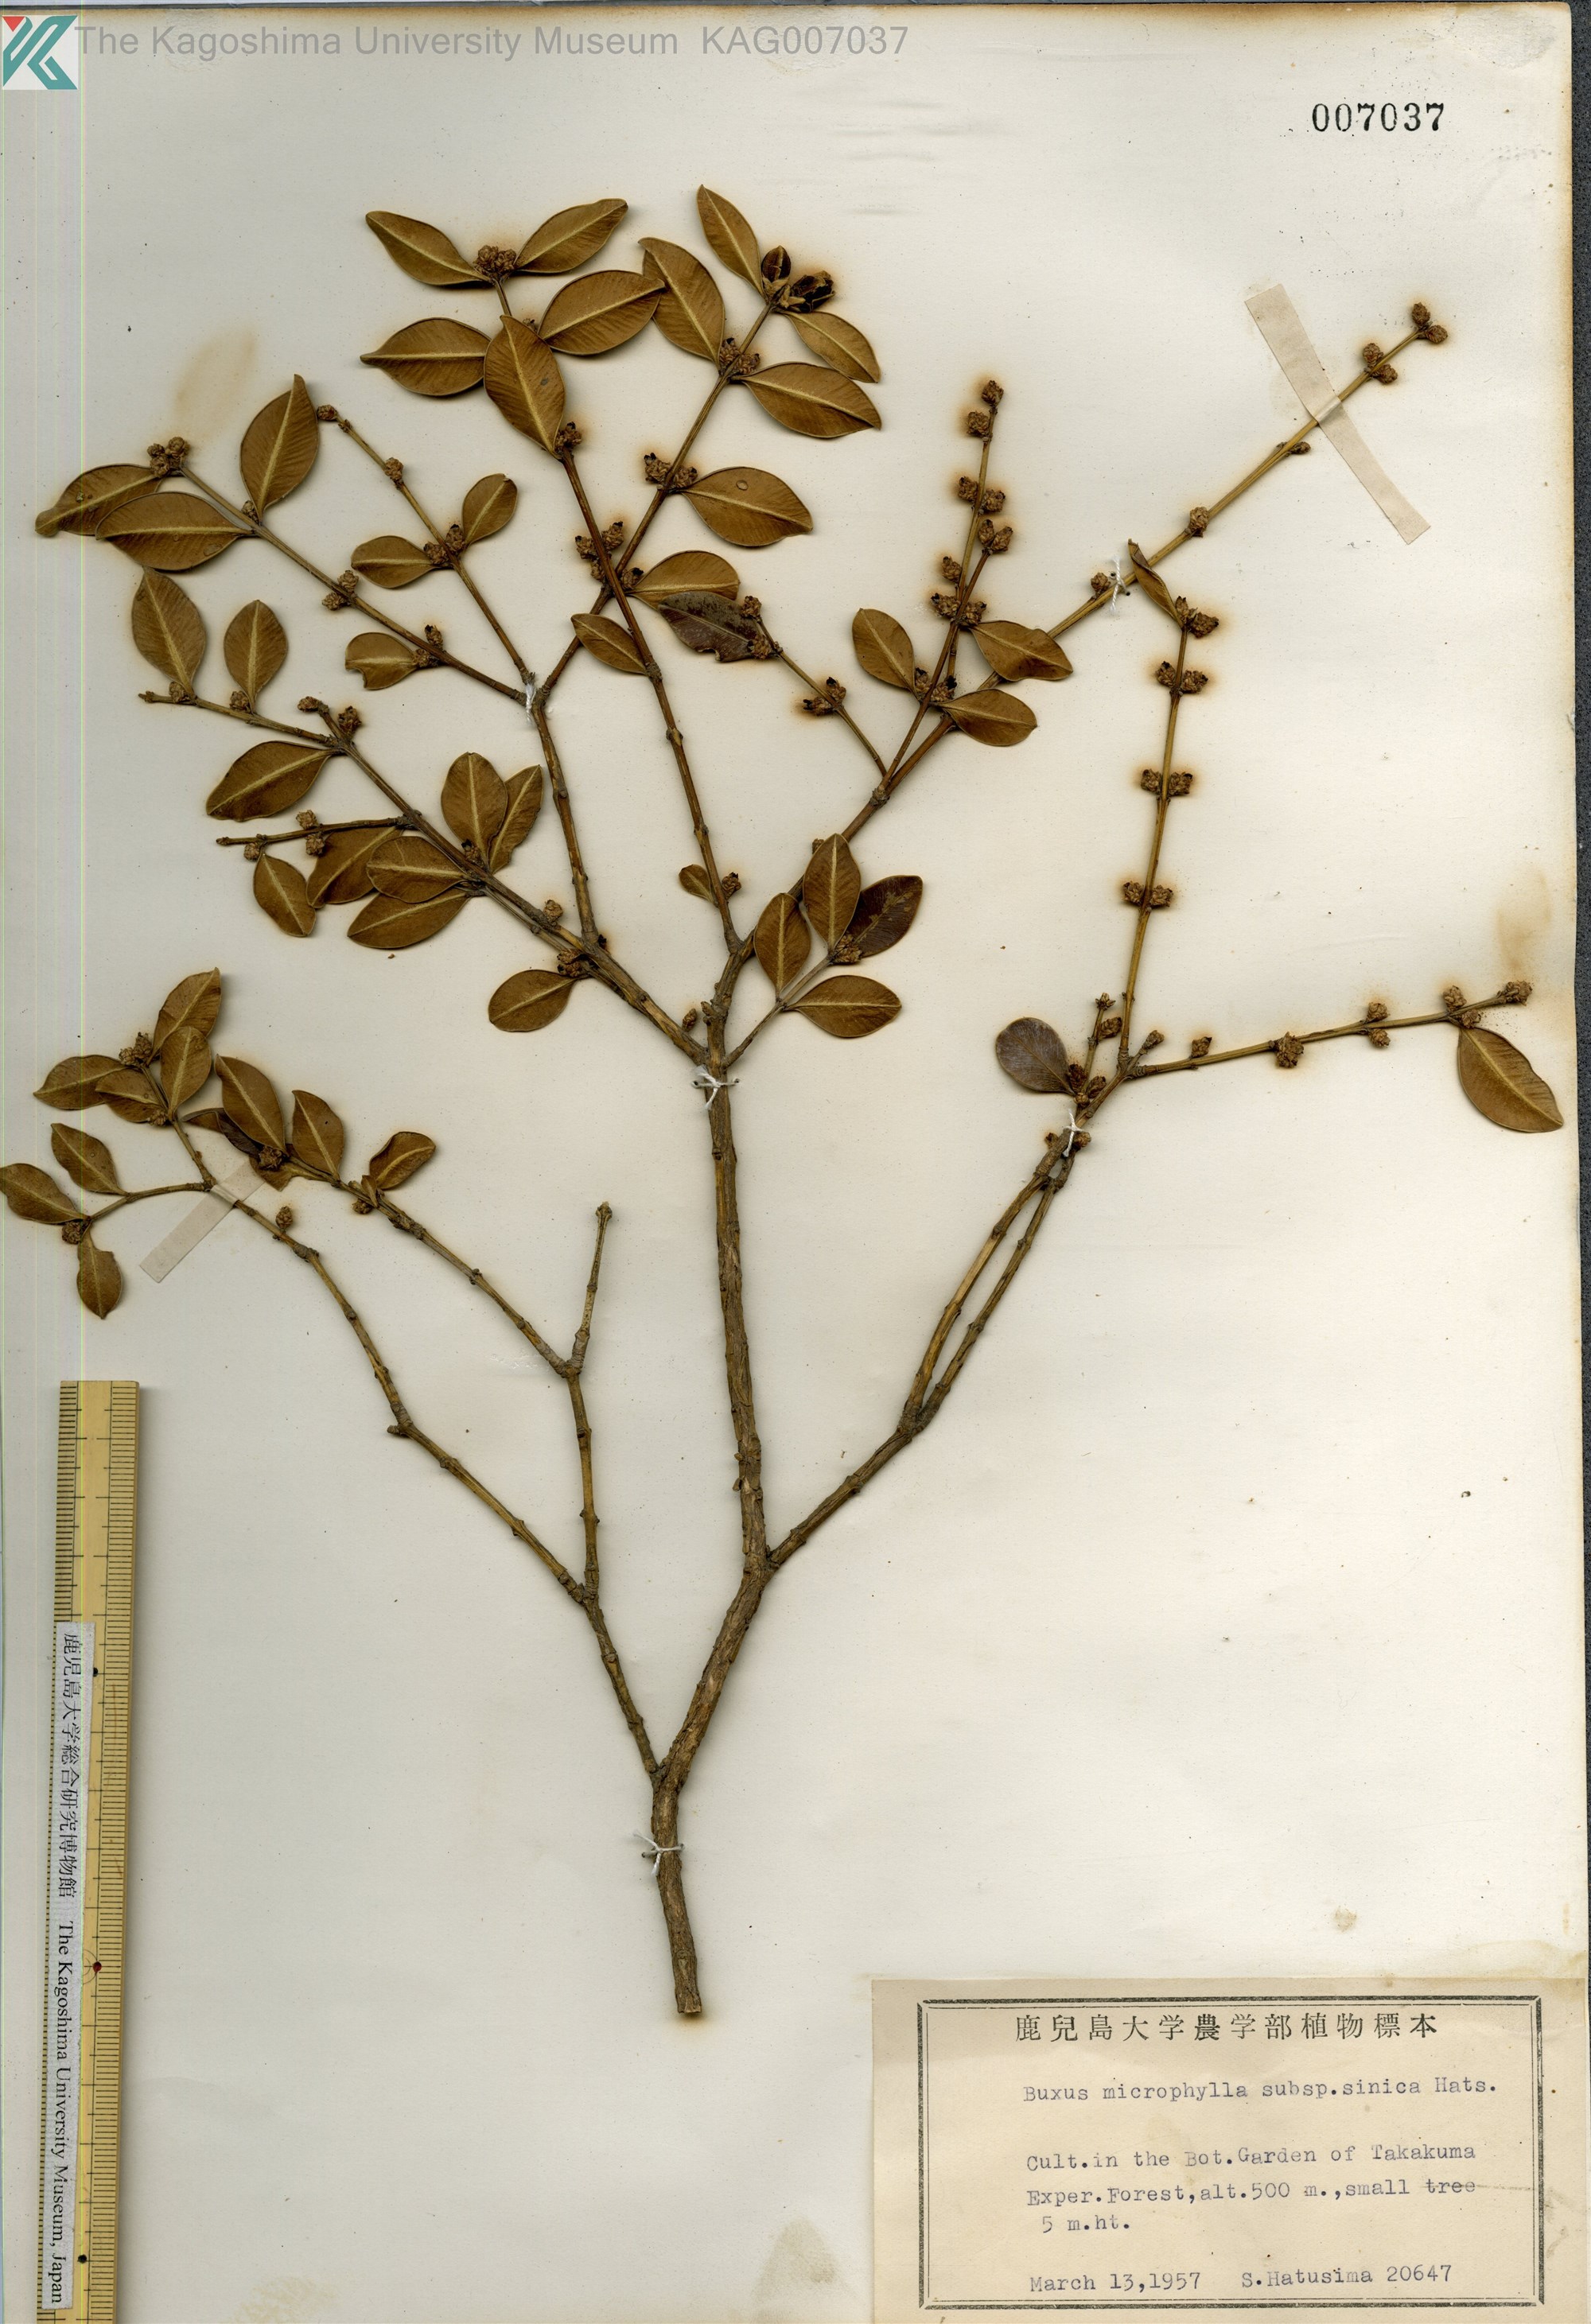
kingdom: Plantae
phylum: Tracheophyta
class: Magnoliopsida
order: Buxales
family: Buxaceae
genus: Buxus
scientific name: Buxus sinica
